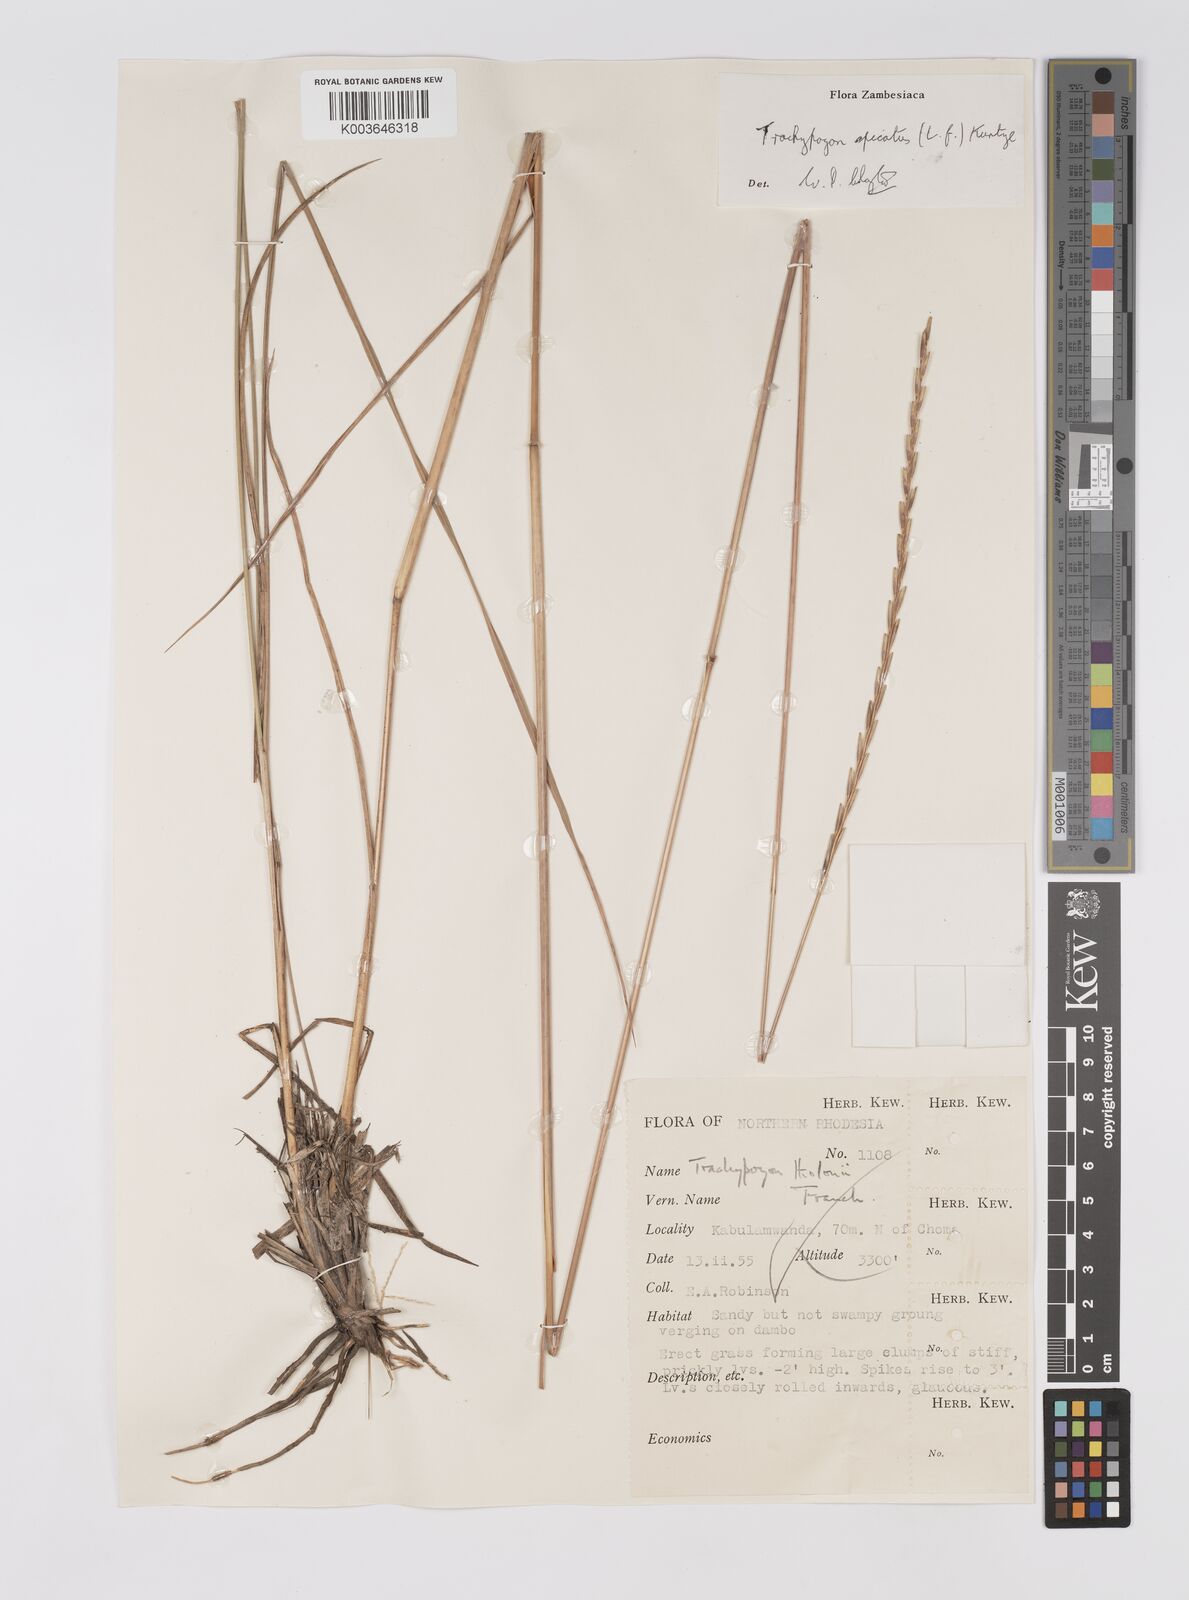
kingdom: Plantae
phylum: Tracheophyta
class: Liliopsida
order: Poales
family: Poaceae
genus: Trachypogon
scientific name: Trachypogon spicatus
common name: Crinkle-awn
